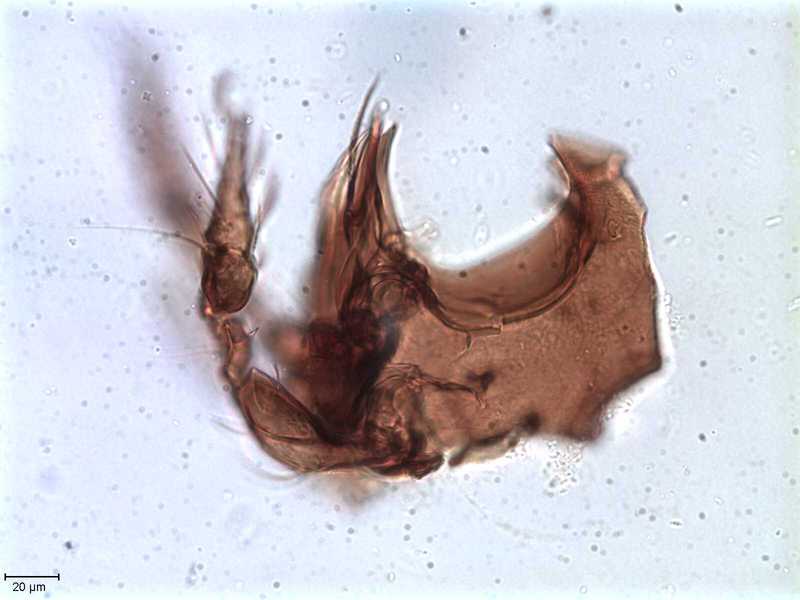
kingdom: Animalia
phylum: Arthropoda
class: Arachnida
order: Sarcoptiformes
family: Tegoribatidae
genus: Plakoribates
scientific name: Plakoribates multicuspidatus
